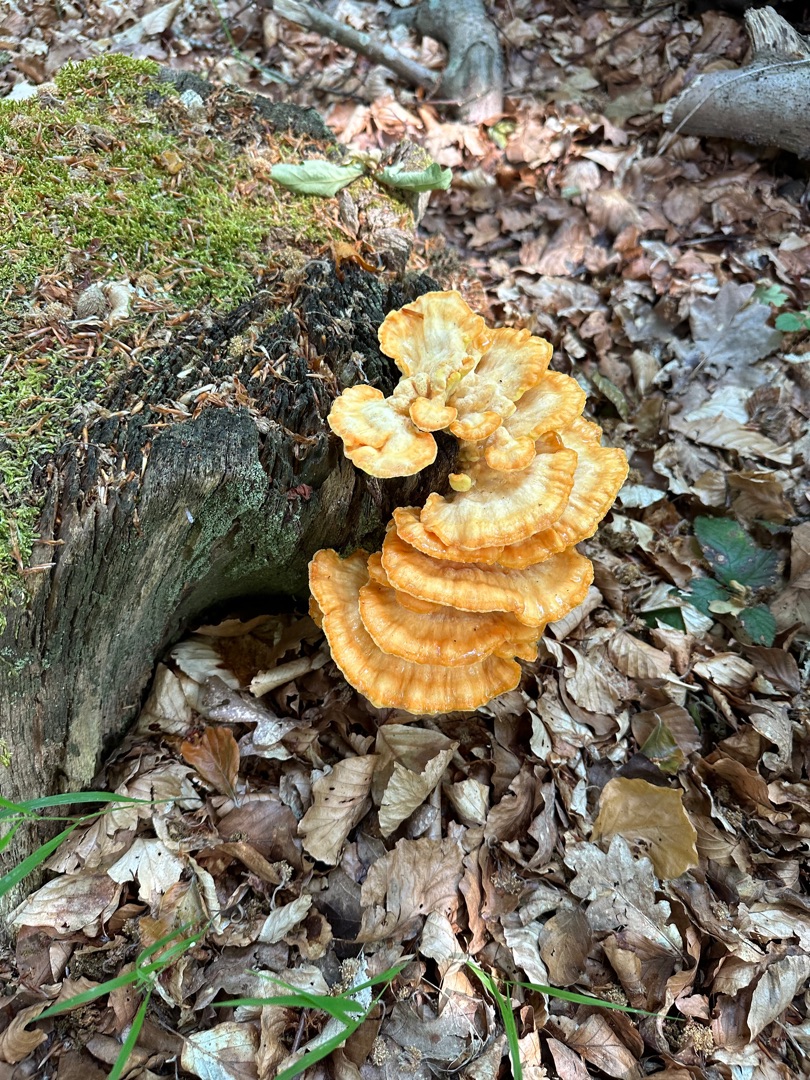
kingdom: Fungi
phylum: Basidiomycota
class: Agaricomycetes
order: Polyporales
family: Laetiporaceae
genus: Laetiporus
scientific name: Laetiporus sulphureus
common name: Svovlporesvamp
